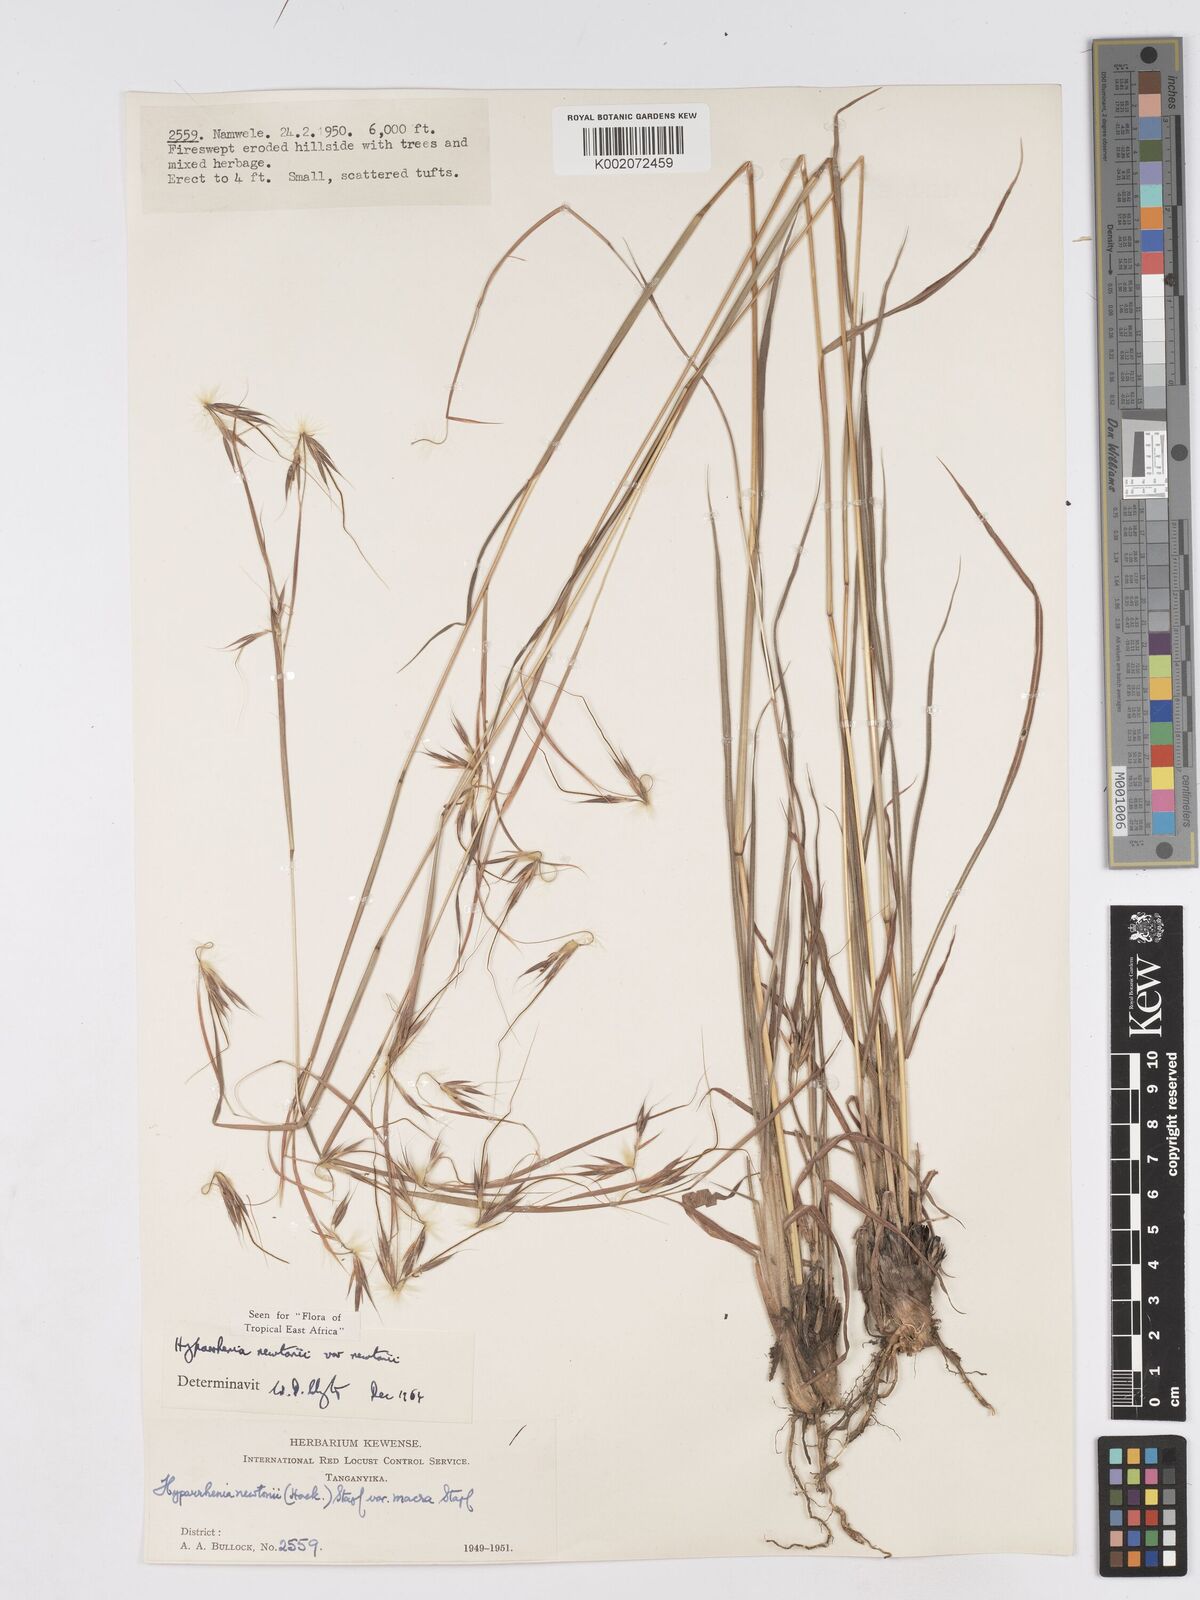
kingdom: Plantae
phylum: Tracheophyta
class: Liliopsida
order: Poales
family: Poaceae
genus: Hyparrhenia
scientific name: Hyparrhenia newtonii
